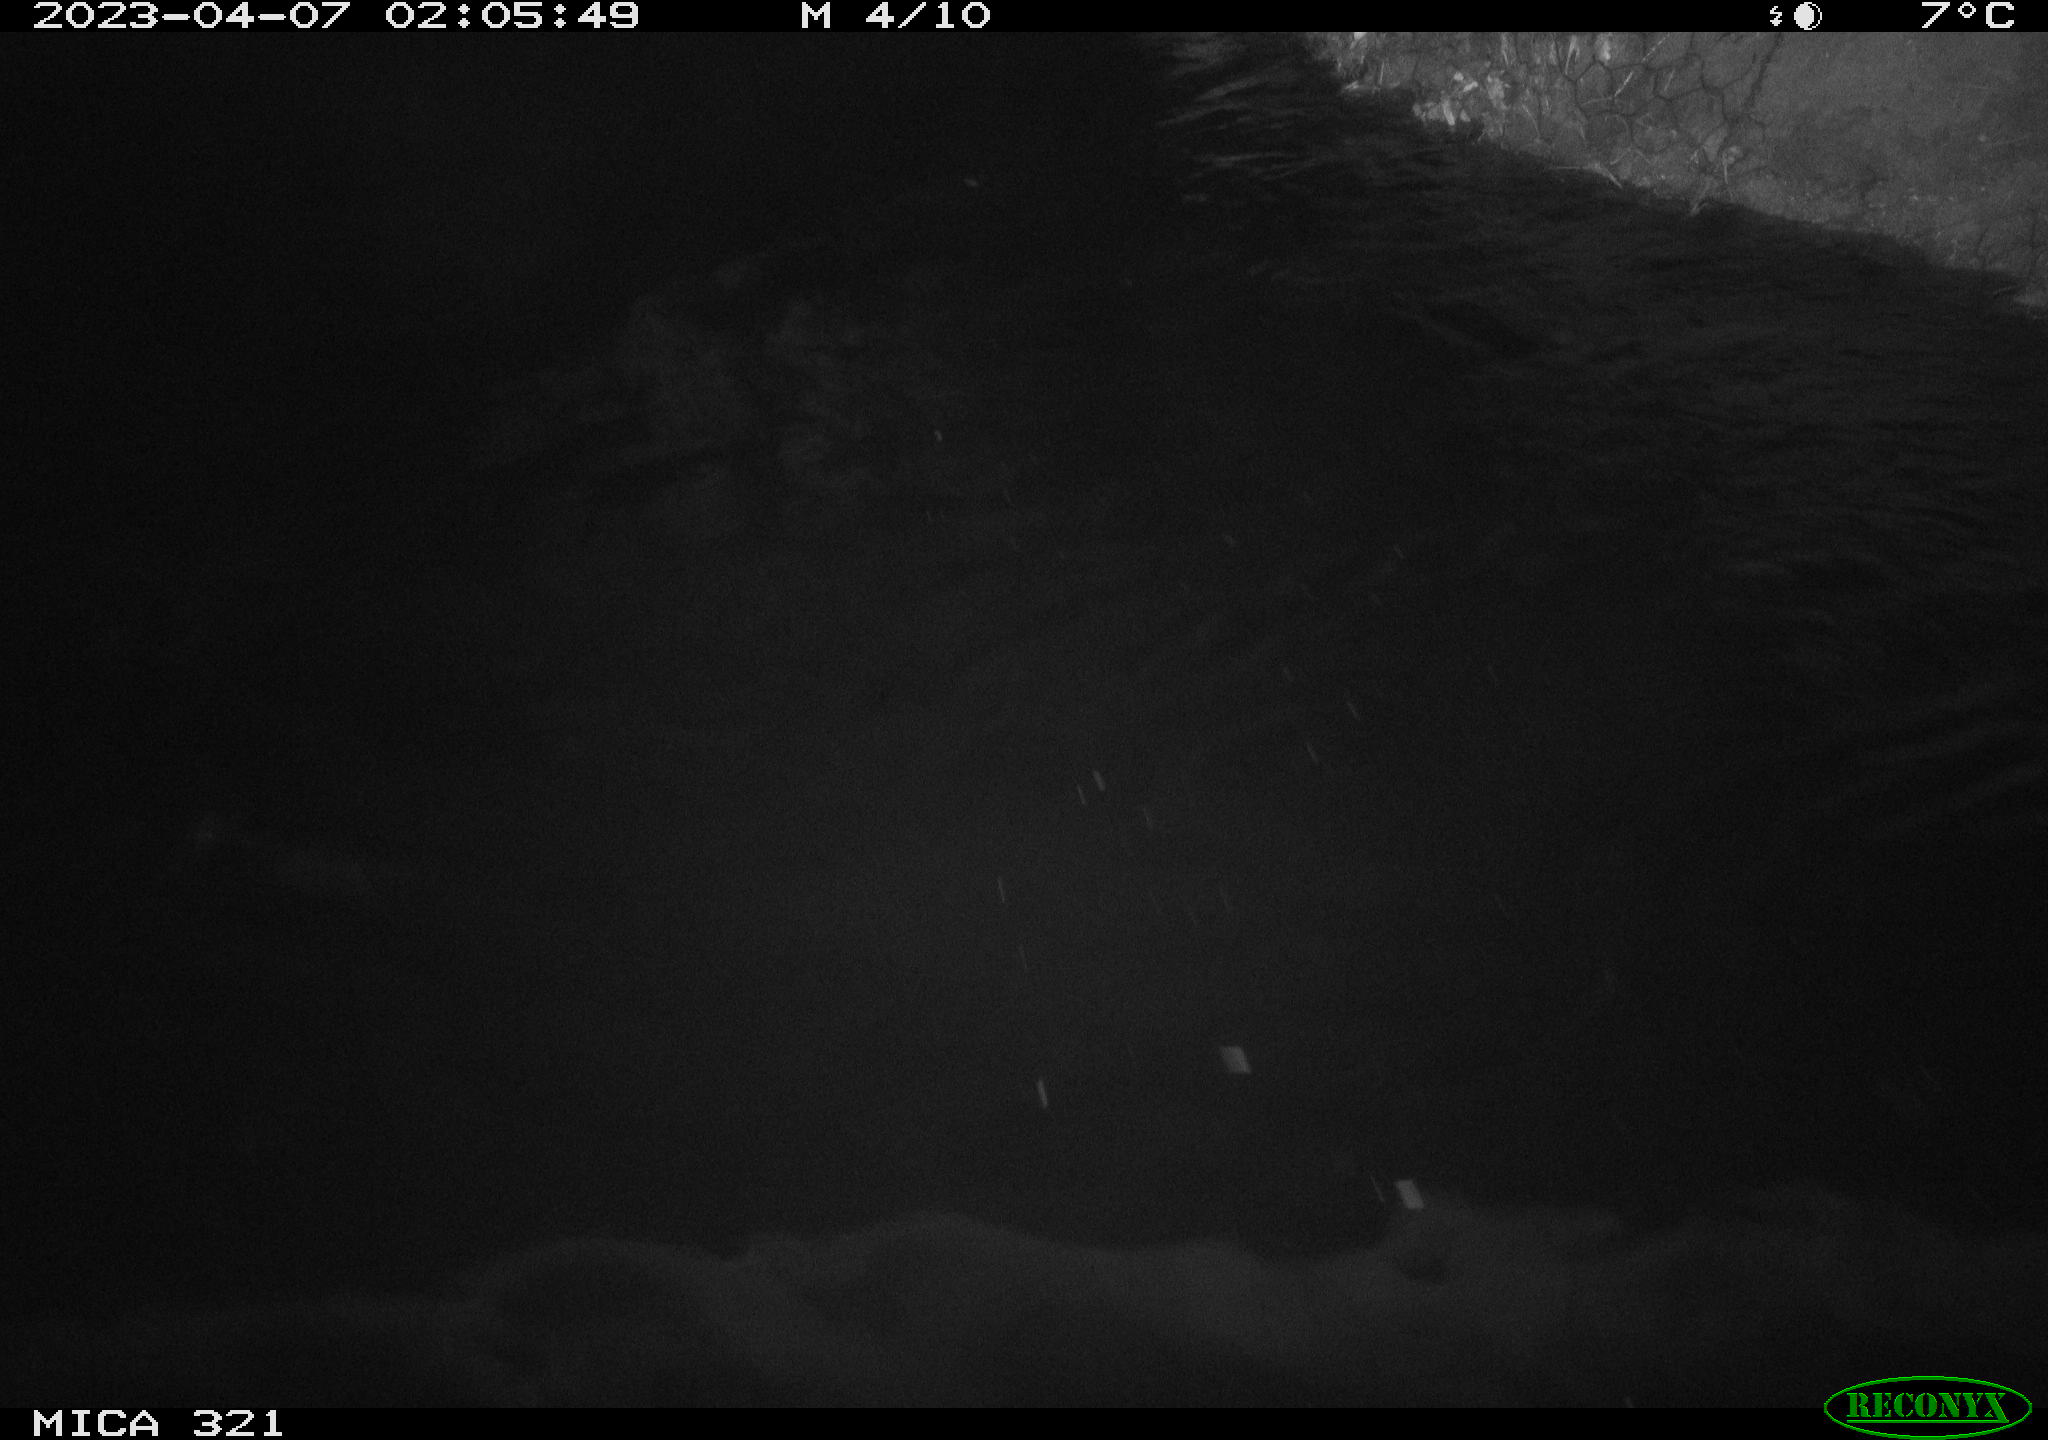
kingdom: Animalia
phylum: Chordata
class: Aves
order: Anseriformes
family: Anatidae
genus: Anas
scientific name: Anas
